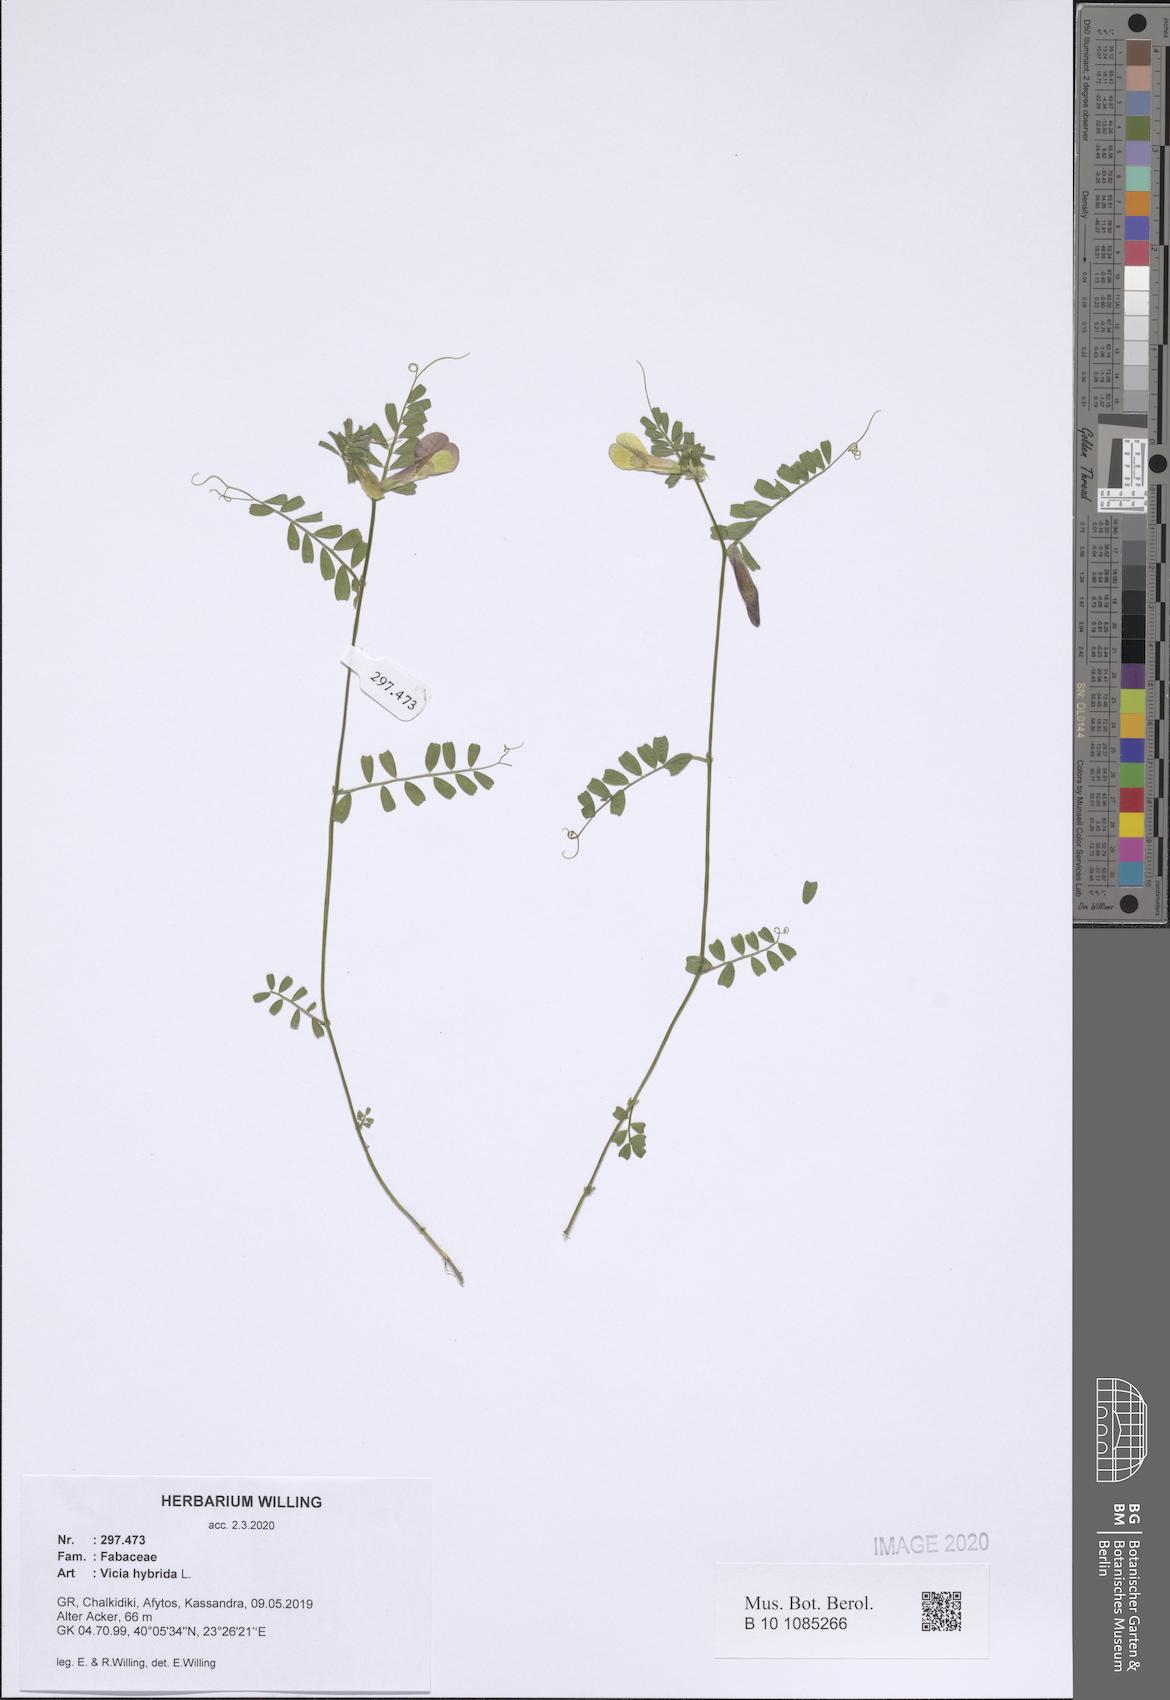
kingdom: Plantae
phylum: Tracheophyta
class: Magnoliopsida
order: Fabales
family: Fabaceae
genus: Vicia
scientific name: Vicia hybrida
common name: Hairy yellow vetch
